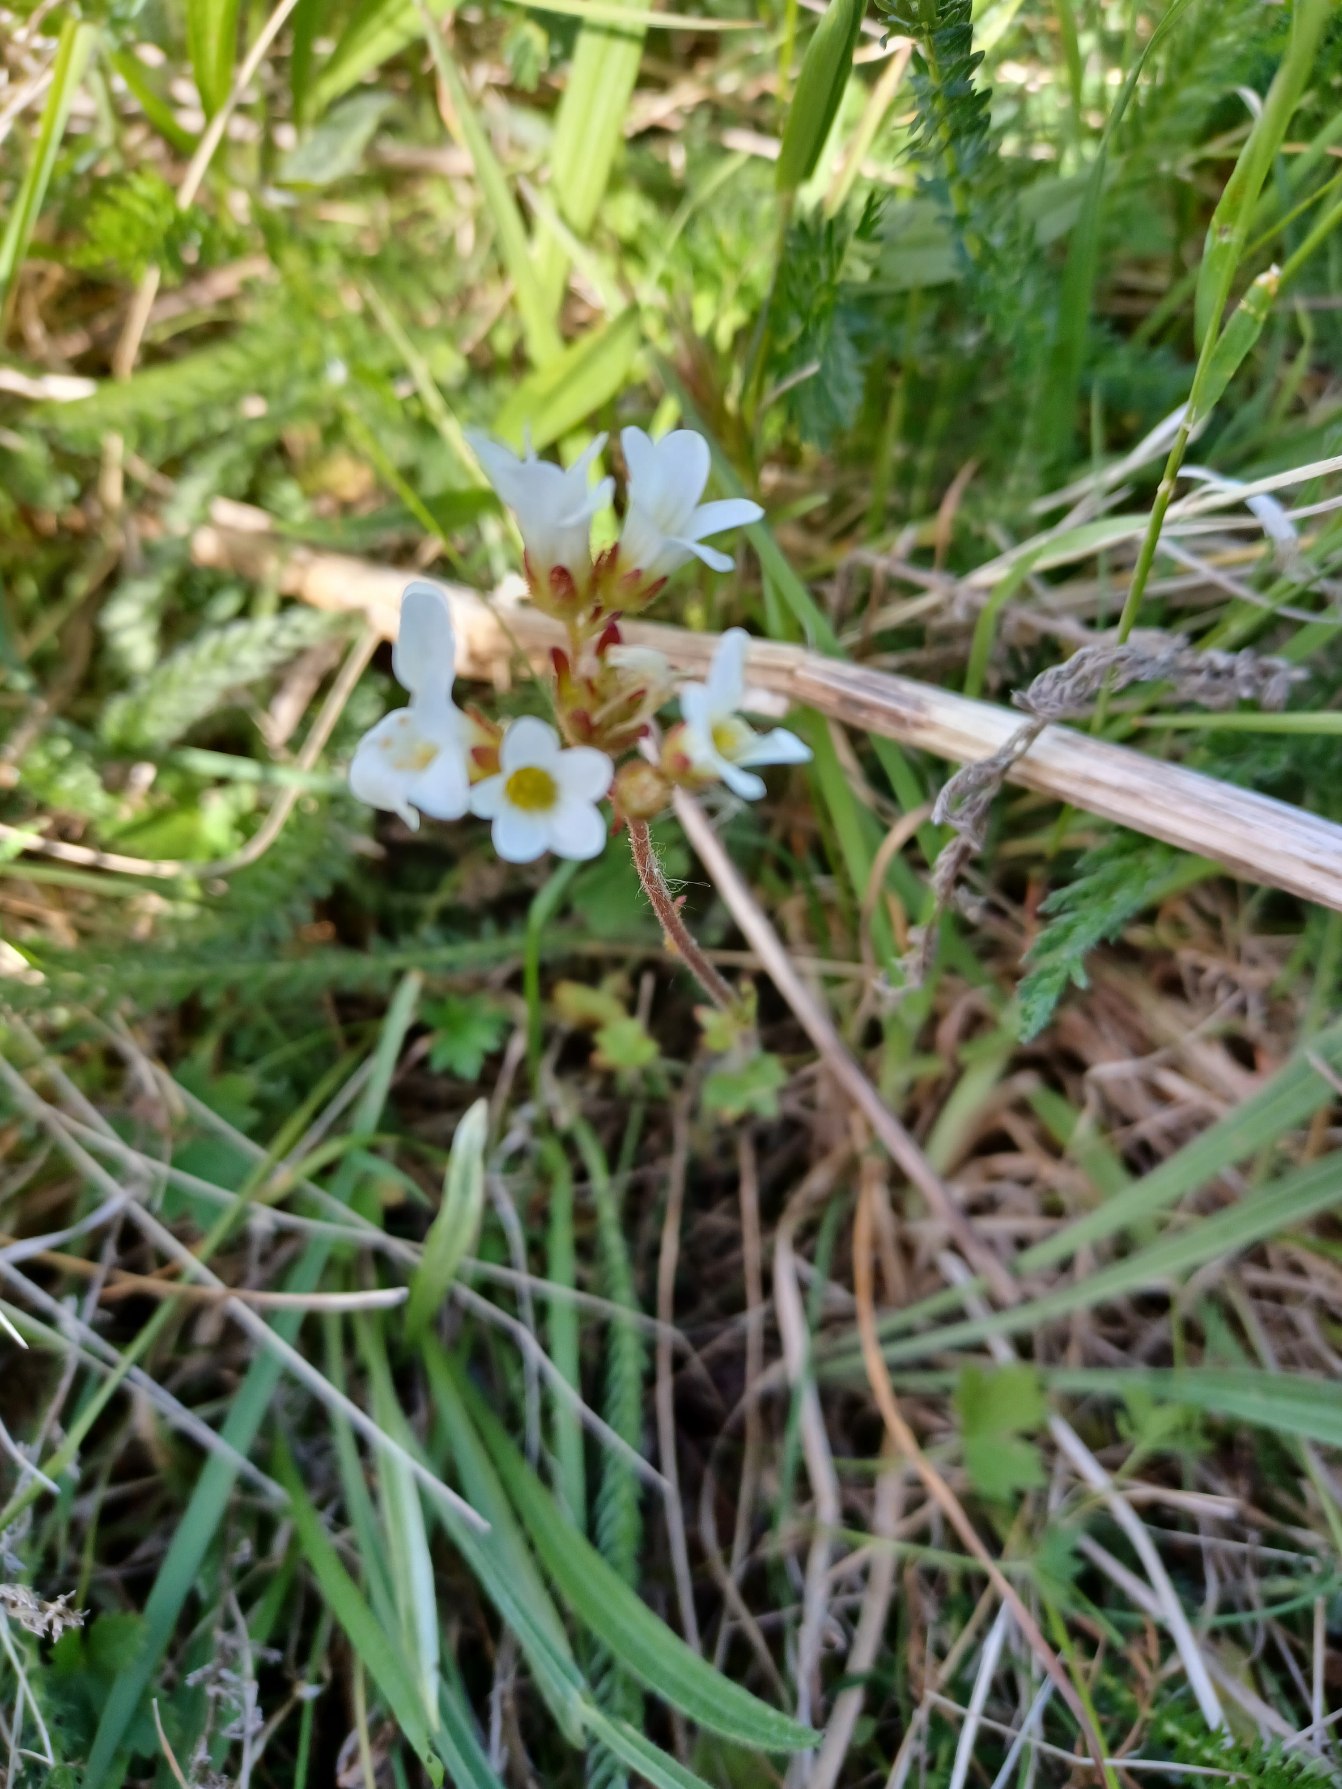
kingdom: Plantae
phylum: Tracheophyta
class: Magnoliopsida
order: Saxifragales
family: Saxifragaceae
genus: Saxifraga
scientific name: Saxifraga granulata
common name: Kornet stenbræk
